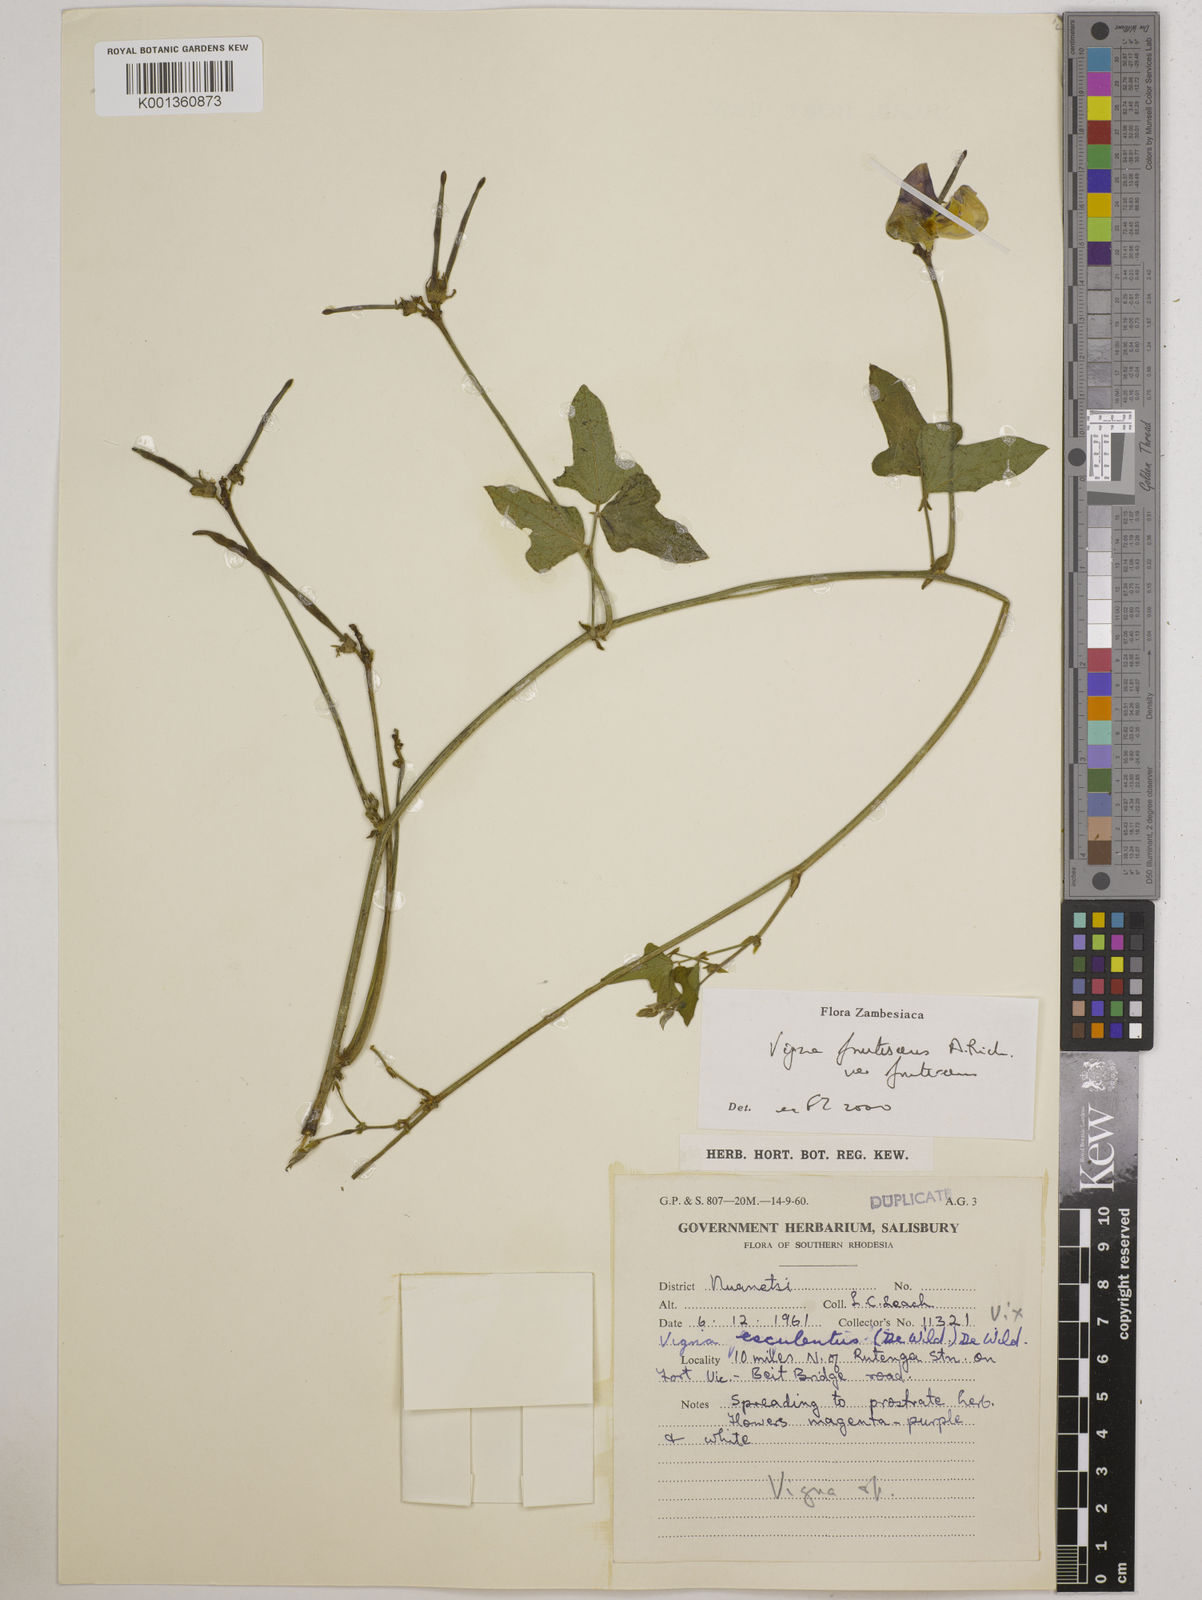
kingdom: Plantae
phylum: Tracheophyta
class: Magnoliopsida
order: Fabales
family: Fabaceae
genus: Vigna
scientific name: Vigna
